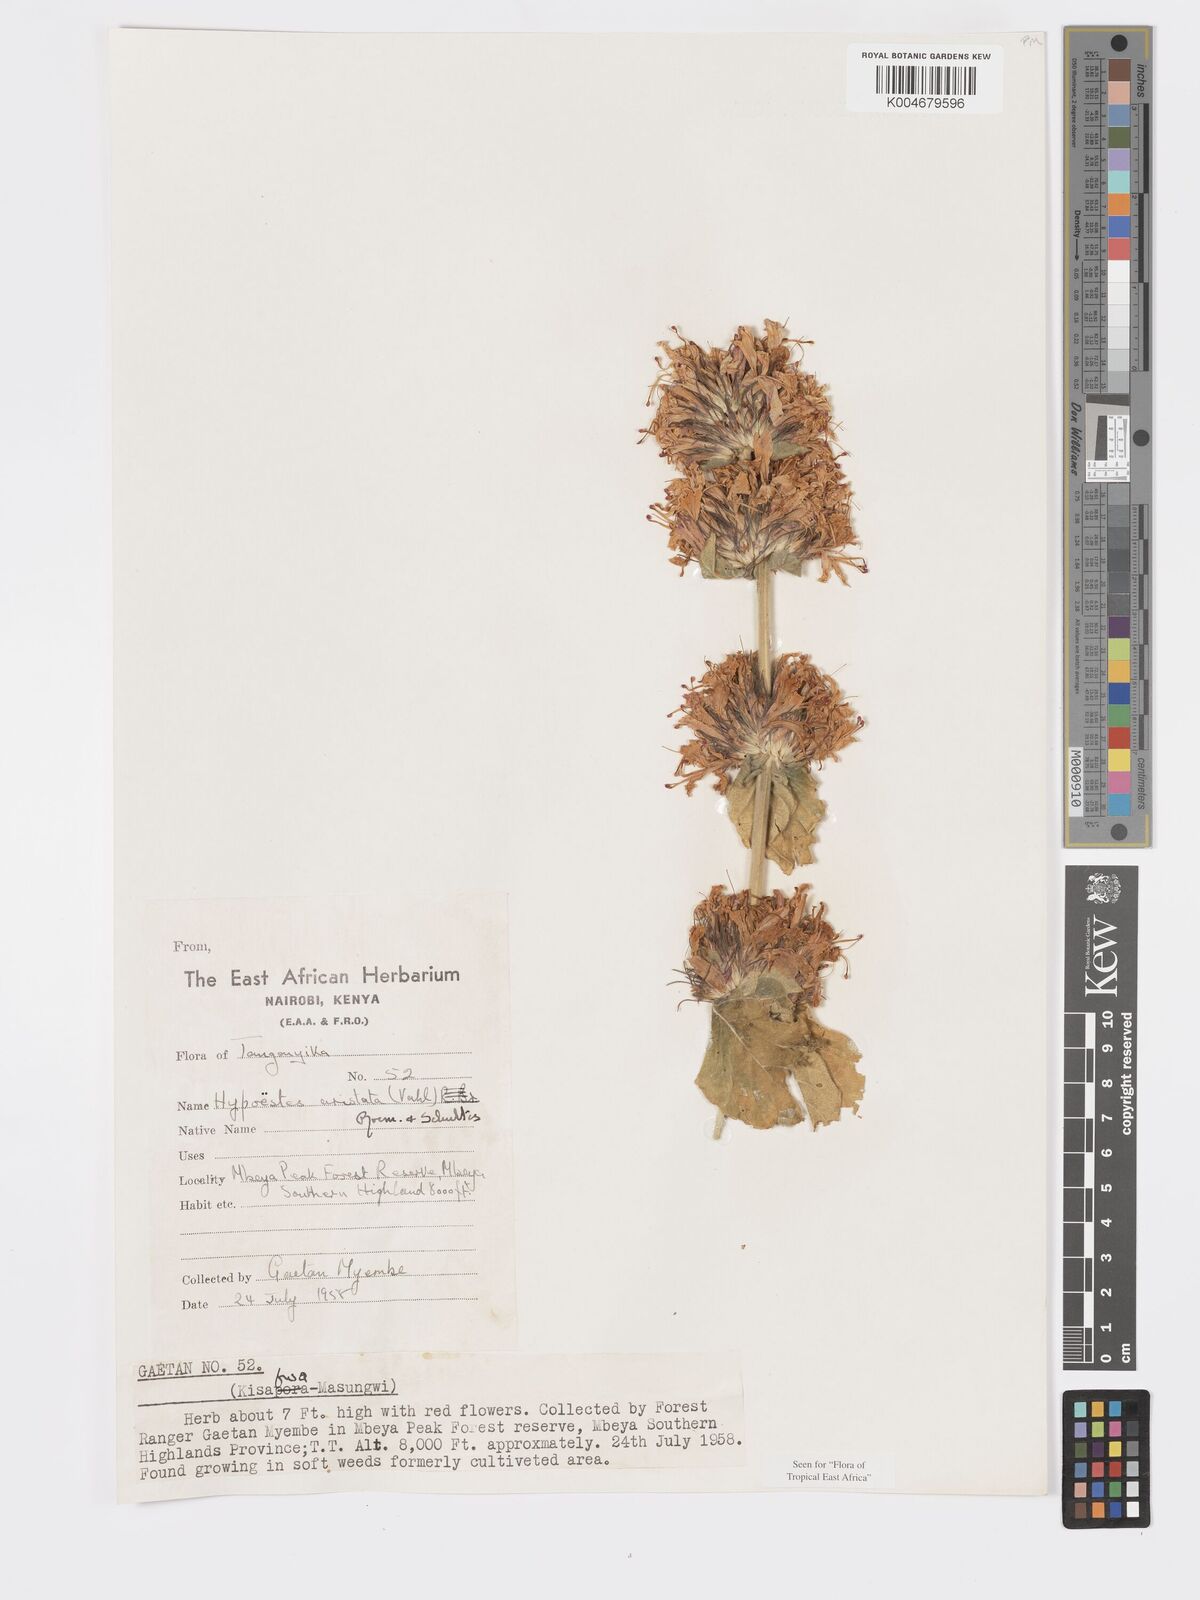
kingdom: Plantae
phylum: Tracheophyta
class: Magnoliopsida
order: Lamiales
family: Acanthaceae
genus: Hypoestes
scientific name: Hypoestes aristata
